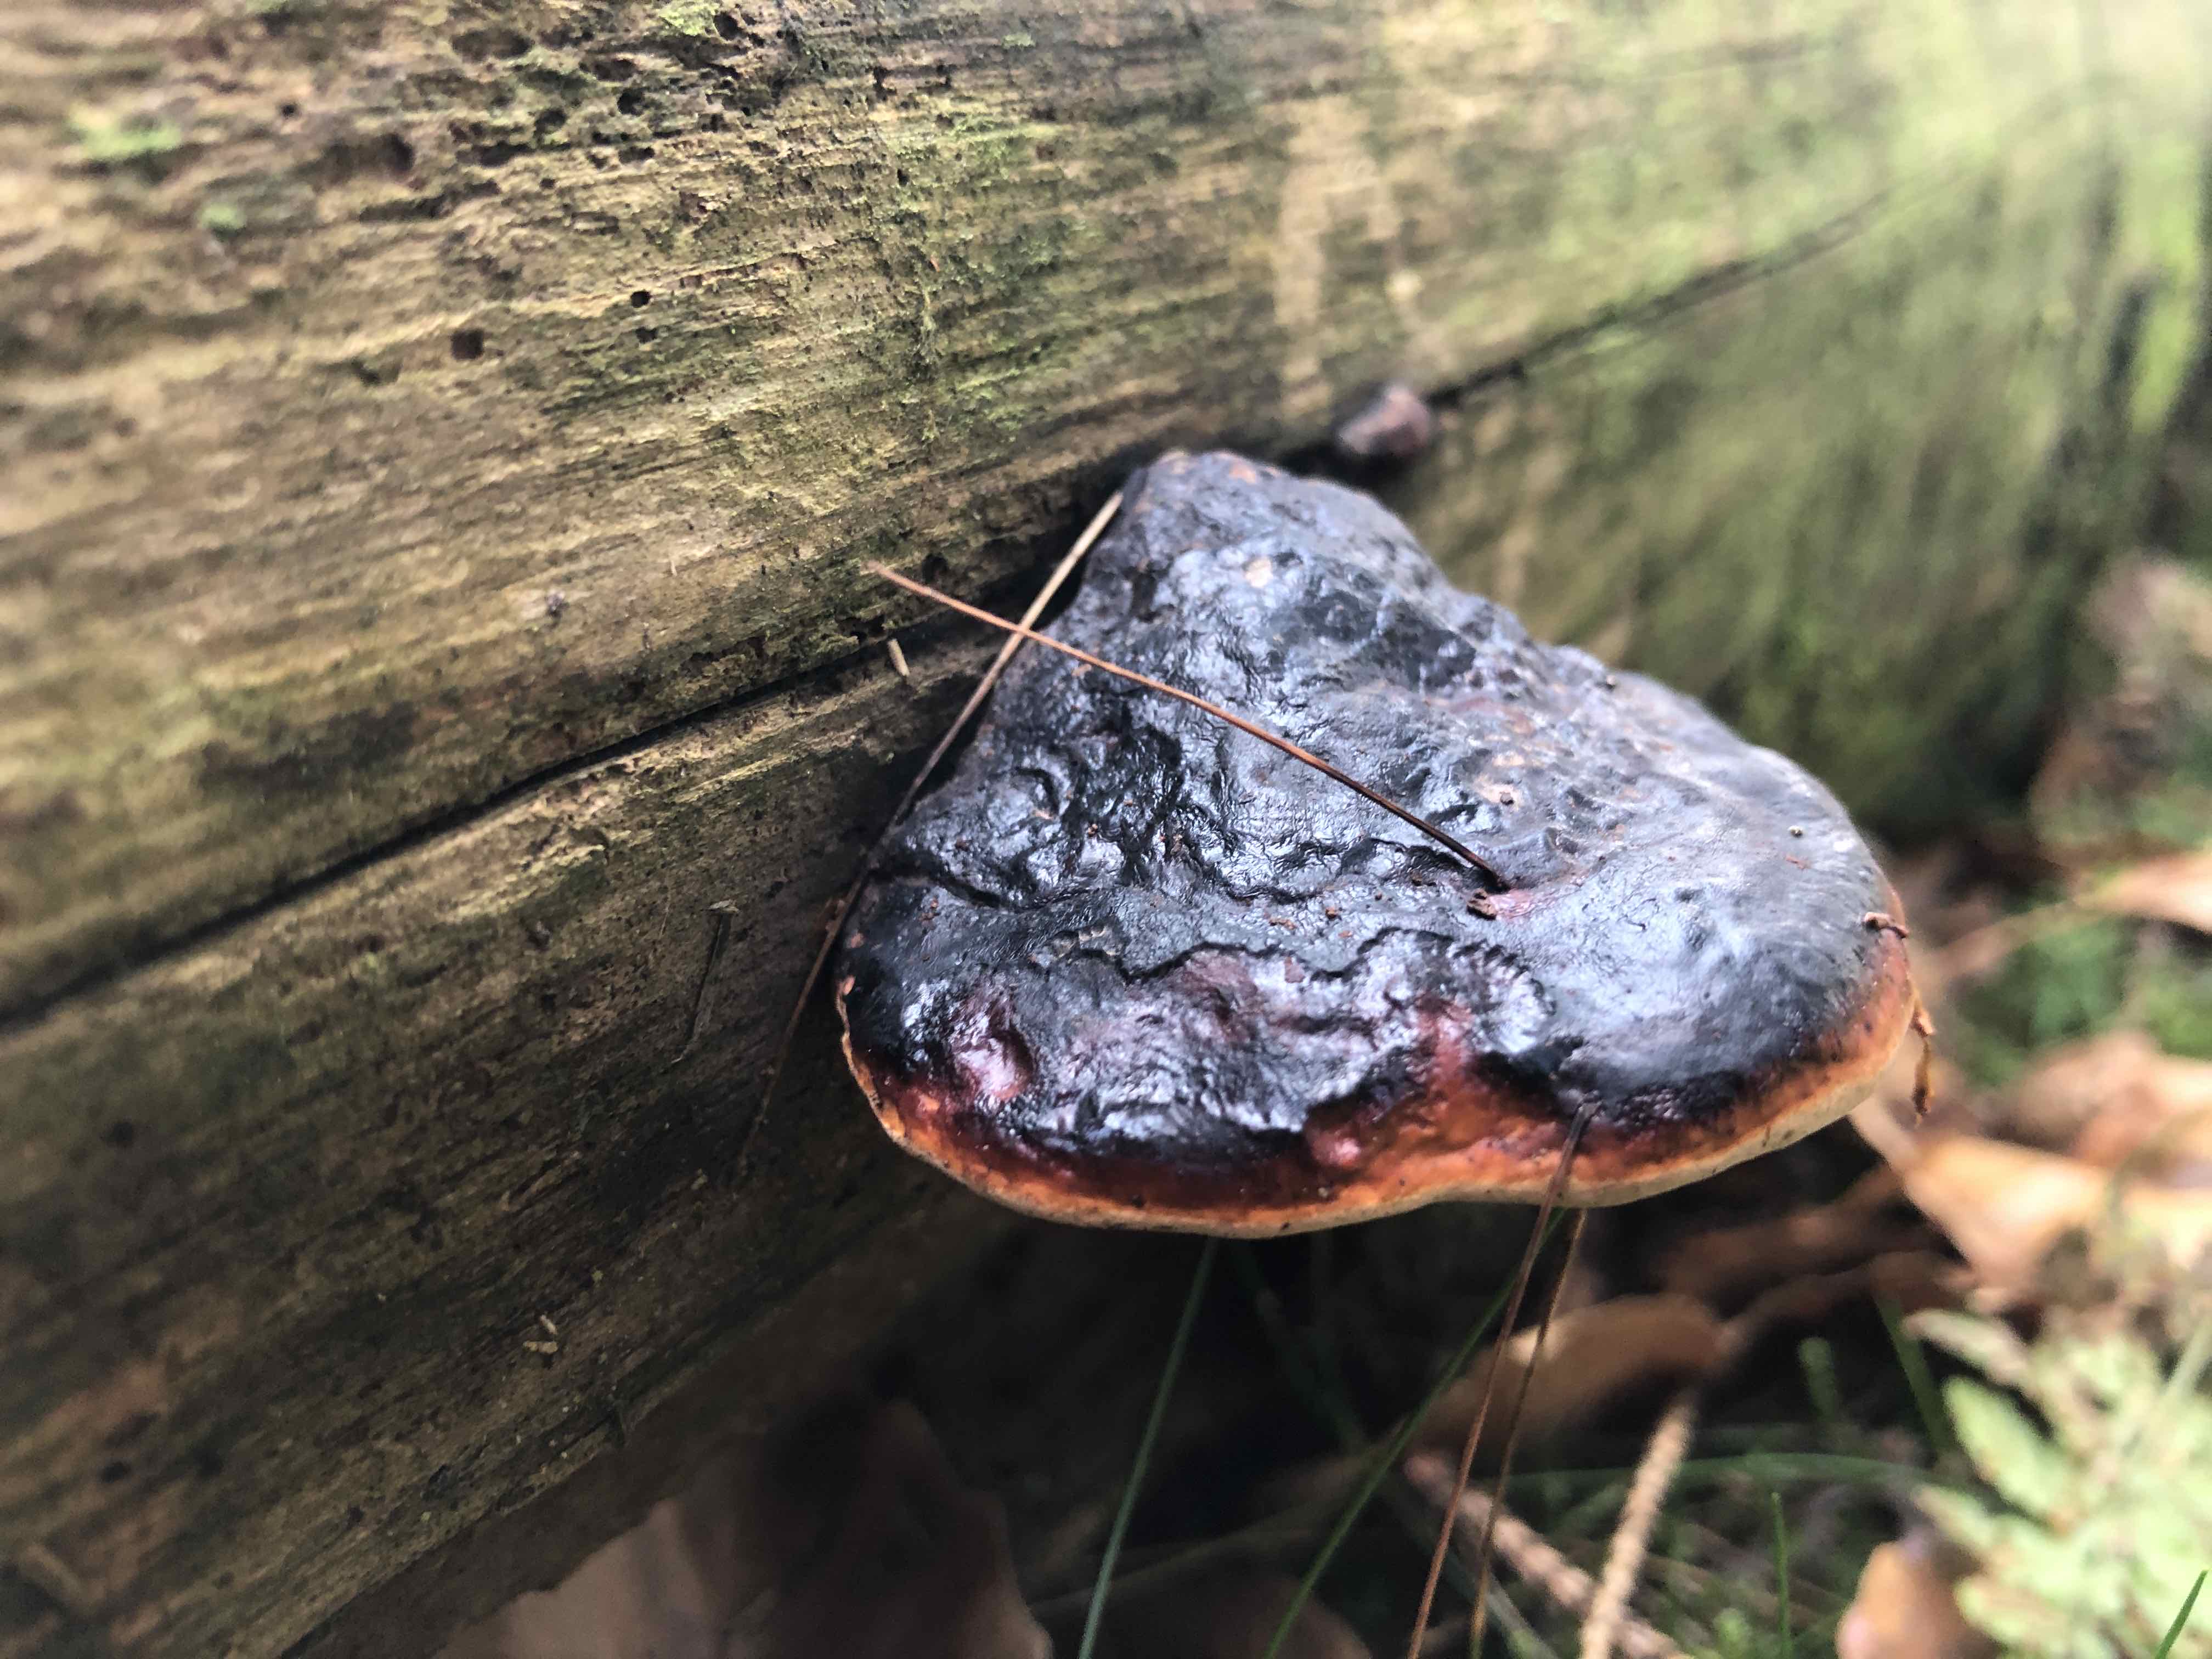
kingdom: Fungi
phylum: Basidiomycota
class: Agaricomycetes
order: Polyporales
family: Fomitopsidaceae
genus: Fomitopsis
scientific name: Fomitopsis pinicola
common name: randbæltet hovporesvamp
